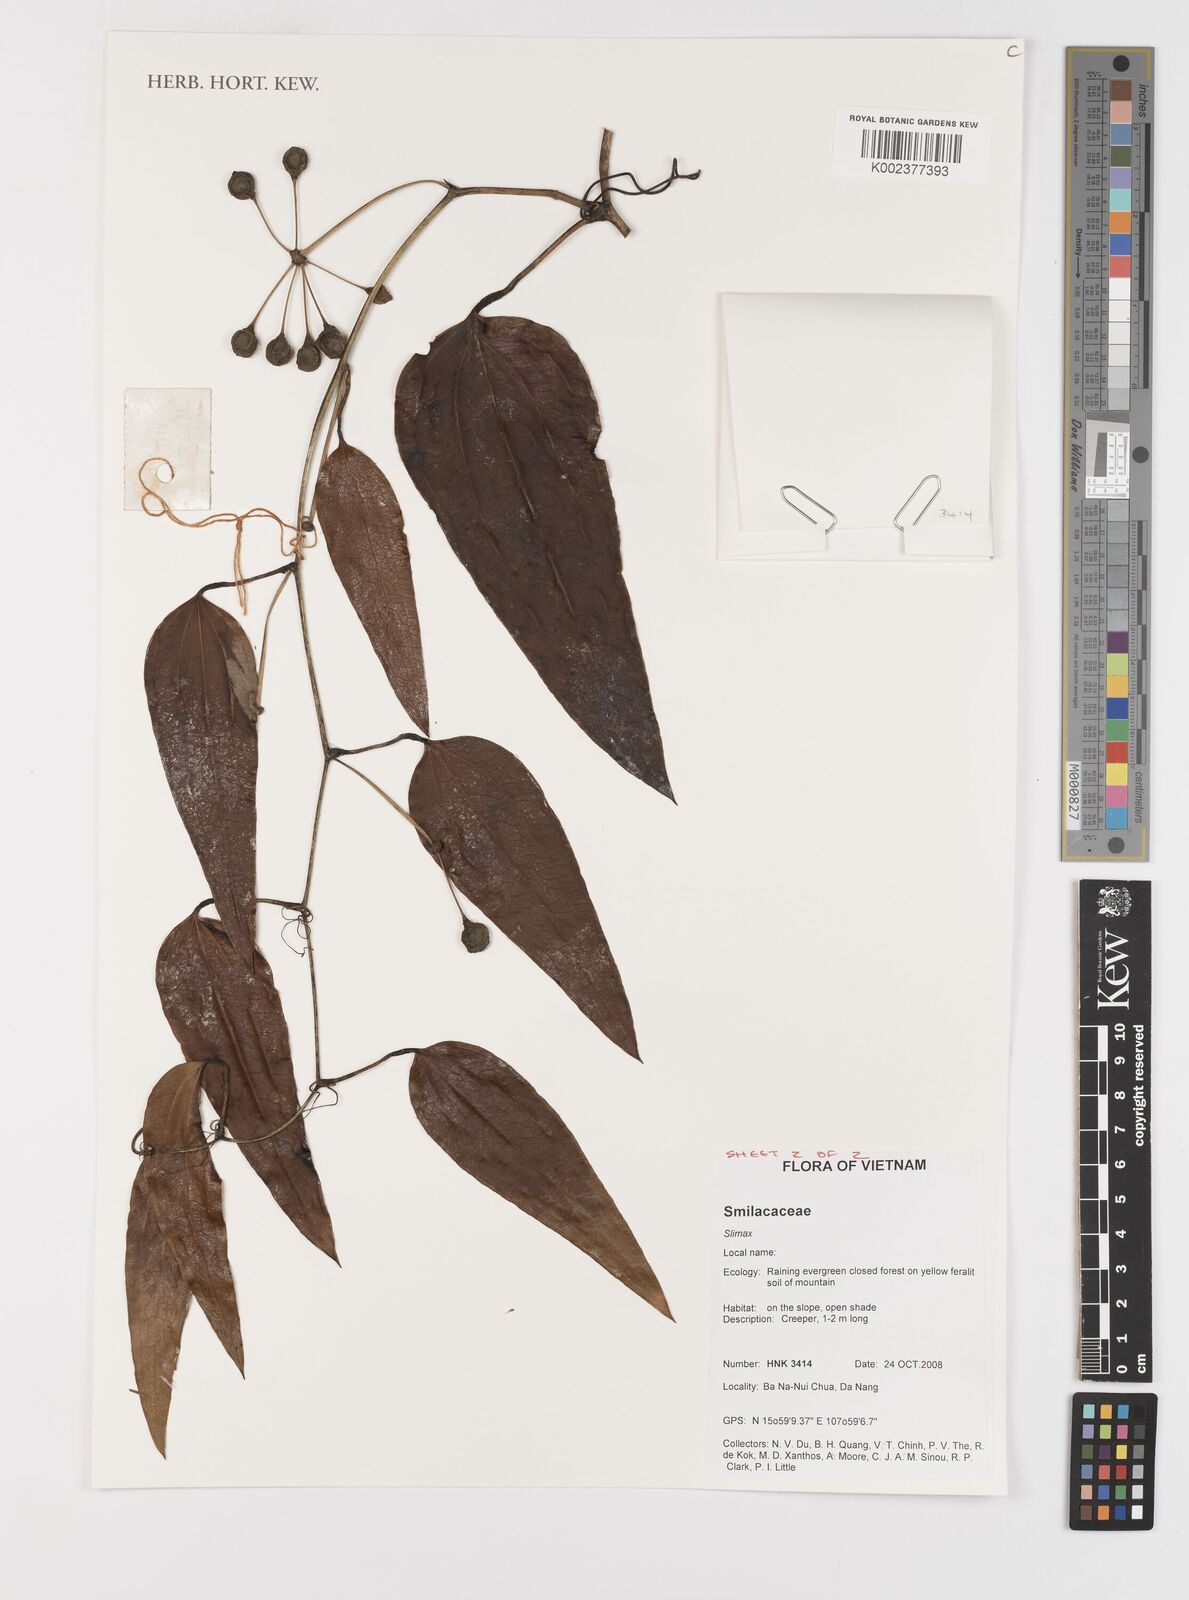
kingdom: Plantae
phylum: Tracheophyta
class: Liliopsida
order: Liliales
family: Smilacaceae
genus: Smilax
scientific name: Smilax
